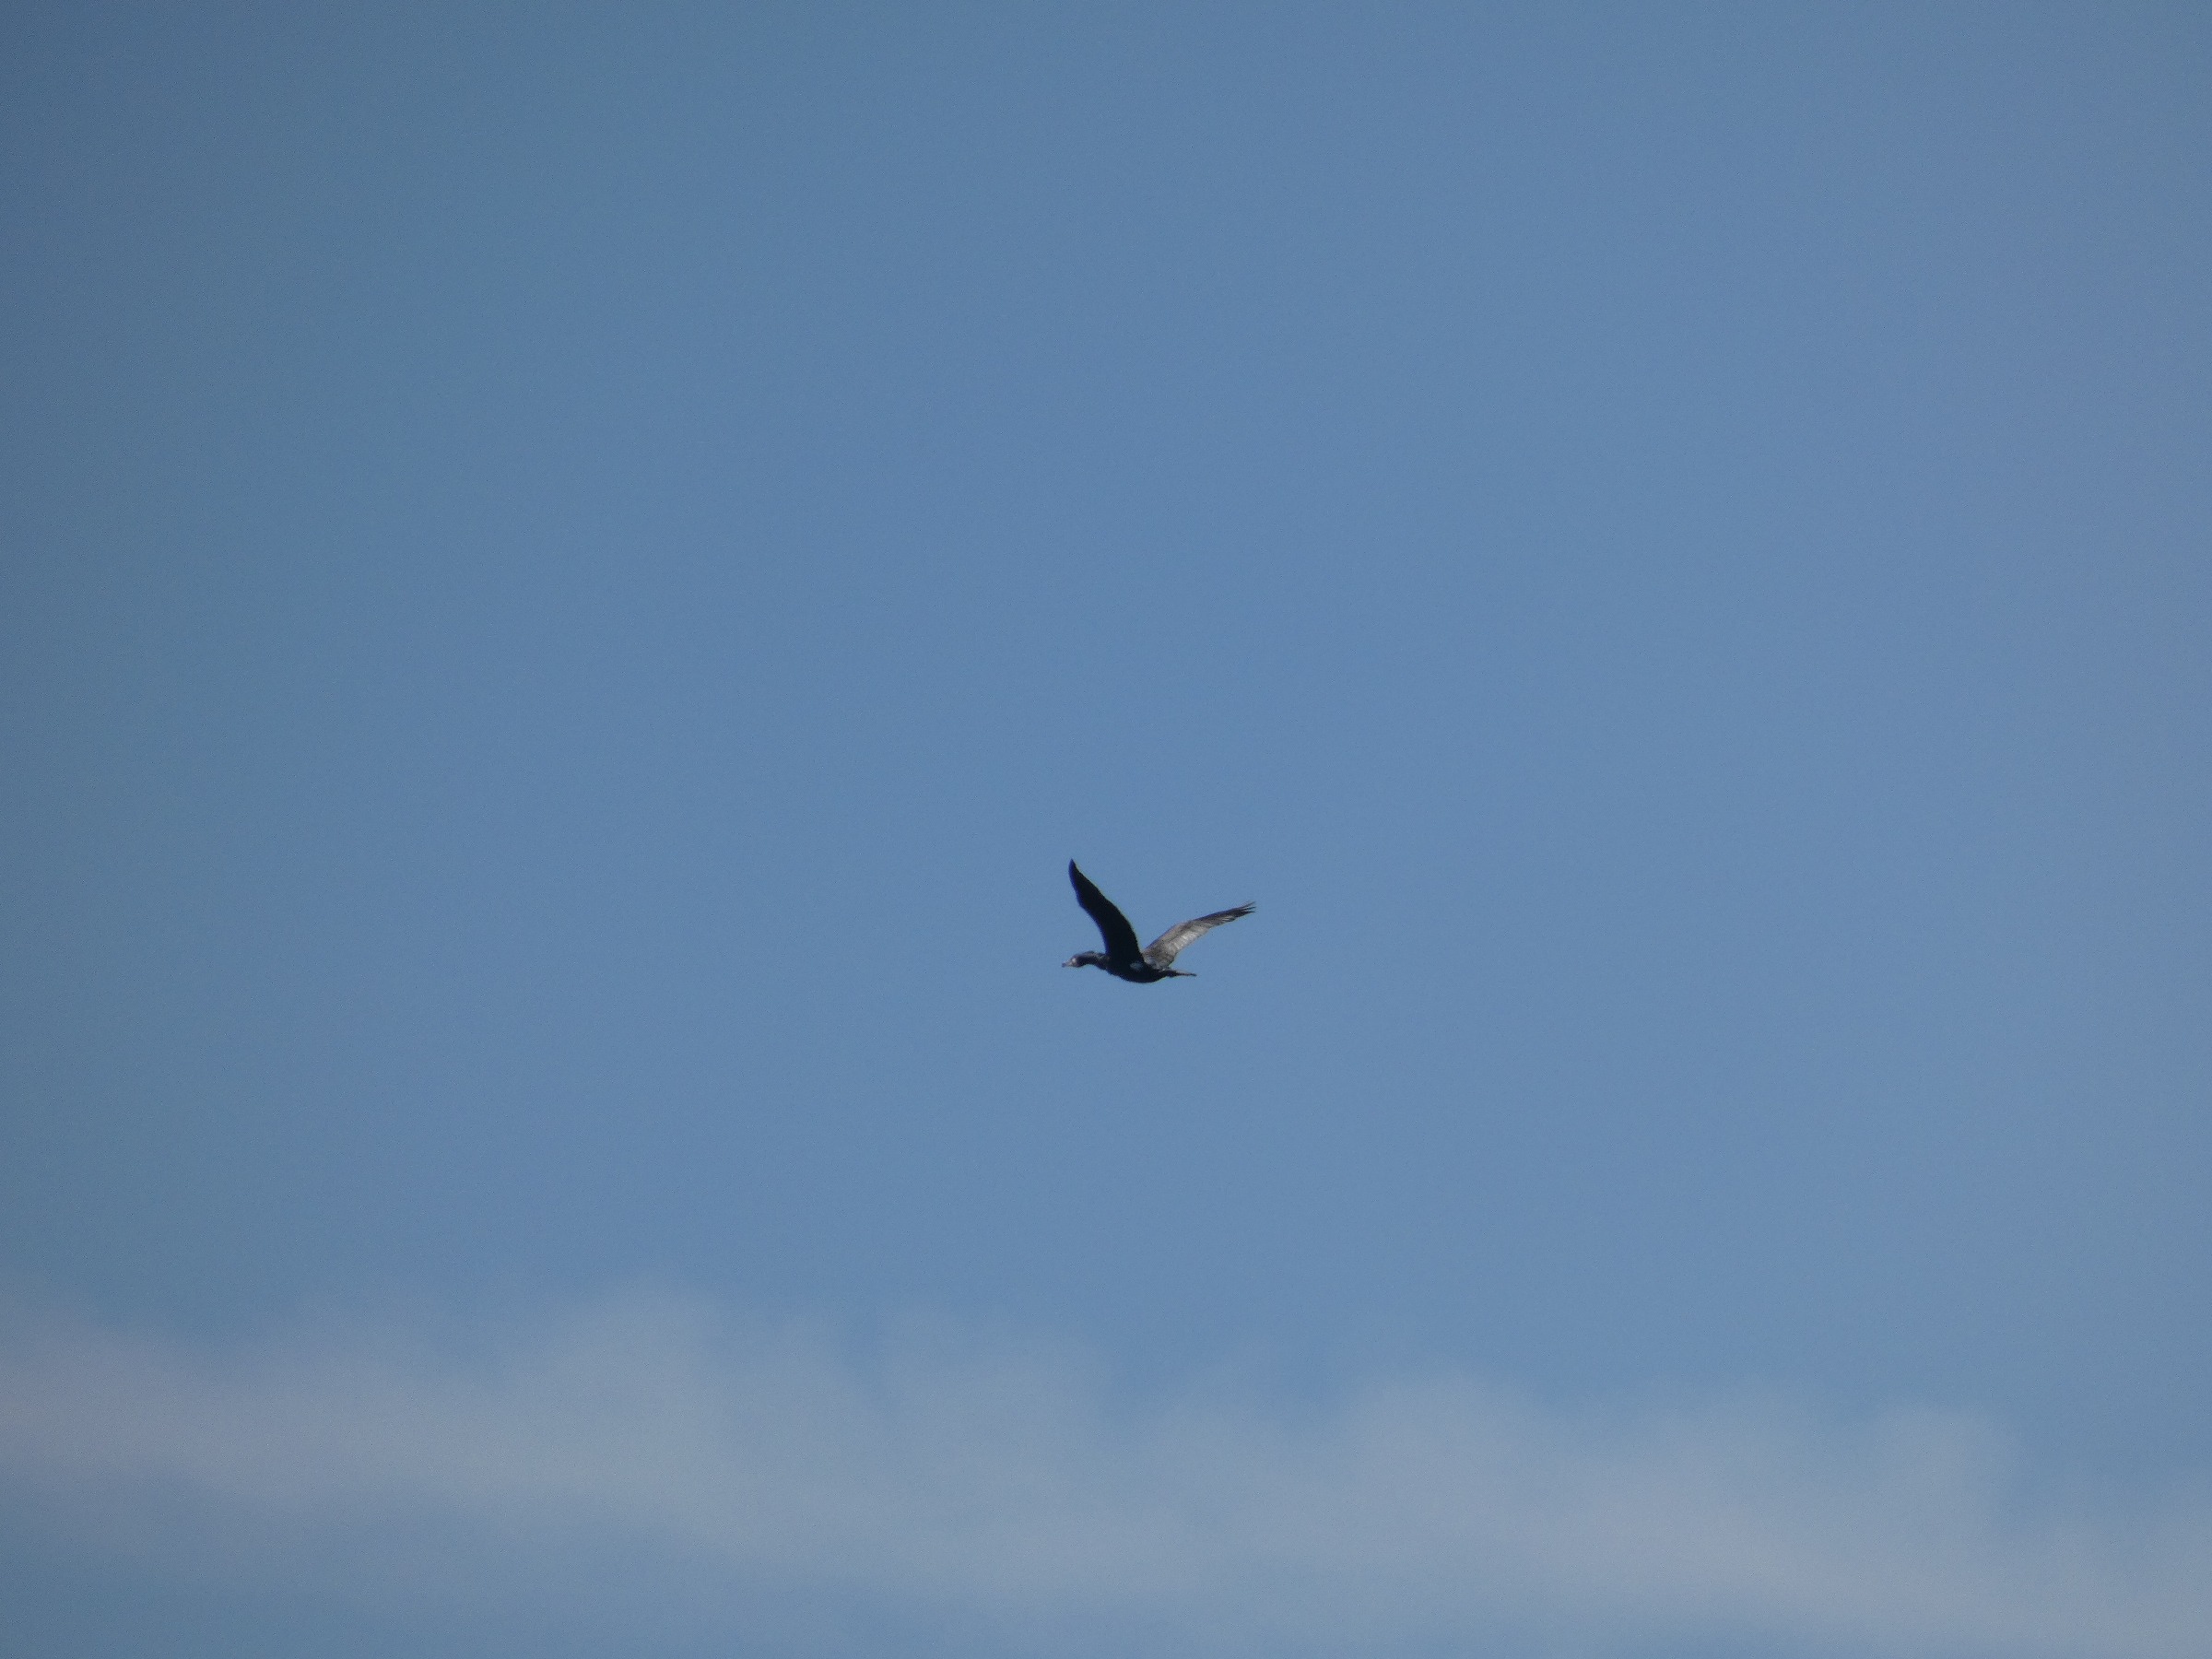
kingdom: Animalia
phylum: Chordata
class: Aves
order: Suliformes
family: Phalacrocoracidae
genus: Phalacrocorax
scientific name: Phalacrocorax carbo
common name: Skarv
